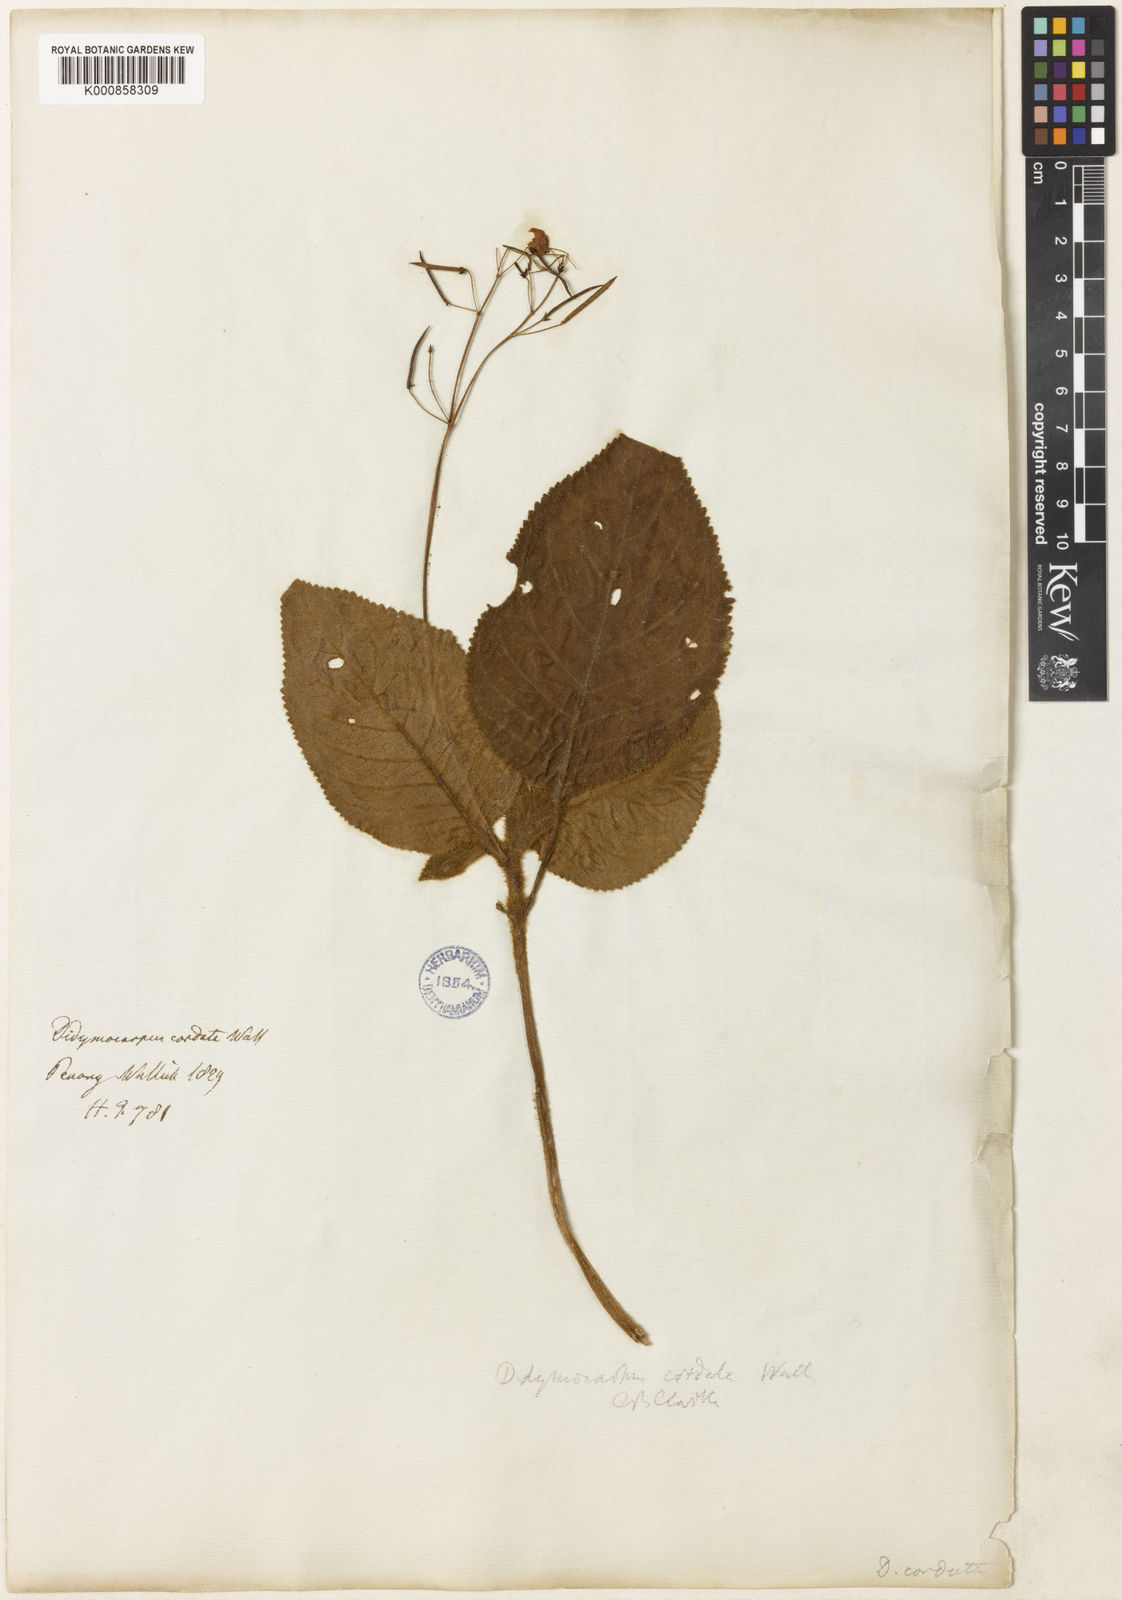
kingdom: Plantae
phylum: Tracheophyta
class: Magnoliopsida
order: Lamiales
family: Gesneriaceae
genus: Didymocarpus
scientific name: Didymocarpus
